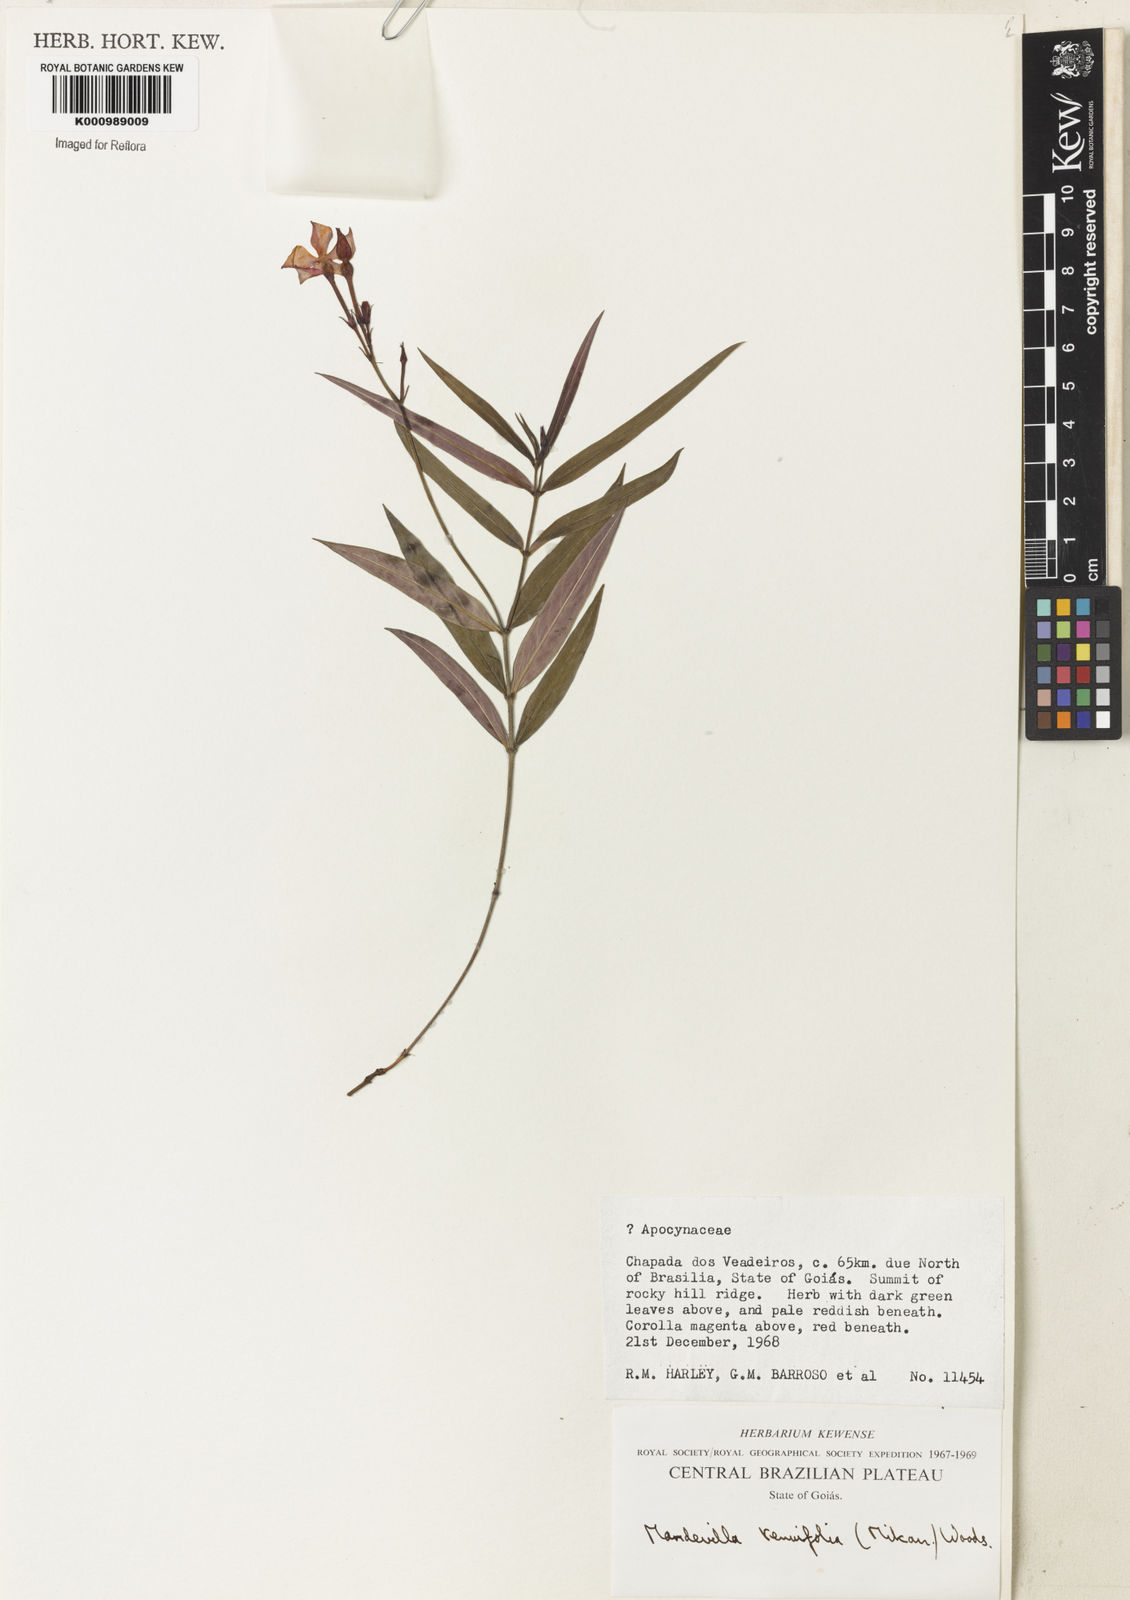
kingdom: Plantae
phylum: Tracheophyta
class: Magnoliopsida
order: Gentianales
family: Apocynaceae
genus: Mandevilla
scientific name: Mandevilla tenuifolia
